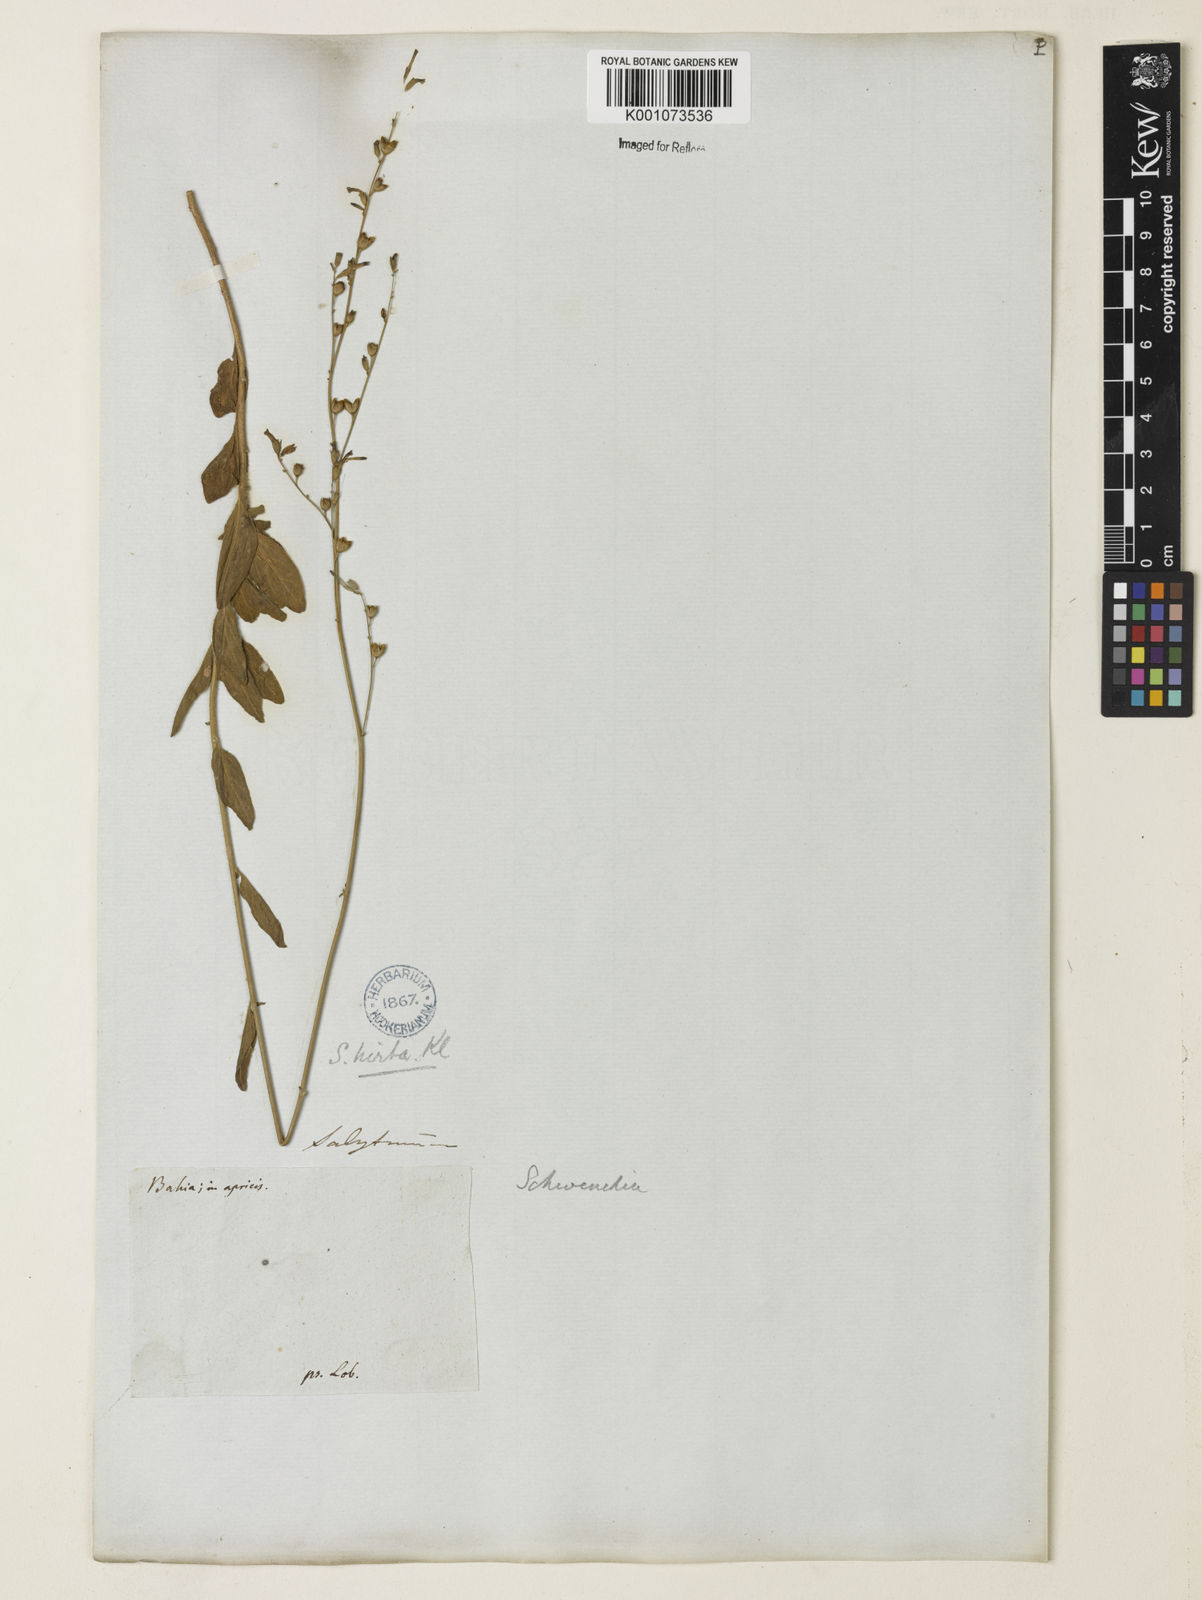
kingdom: Plantae
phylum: Tracheophyta
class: Magnoliopsida
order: Solanales
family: Solanaceae
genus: Schwenckia
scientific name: Schwenckia americana
